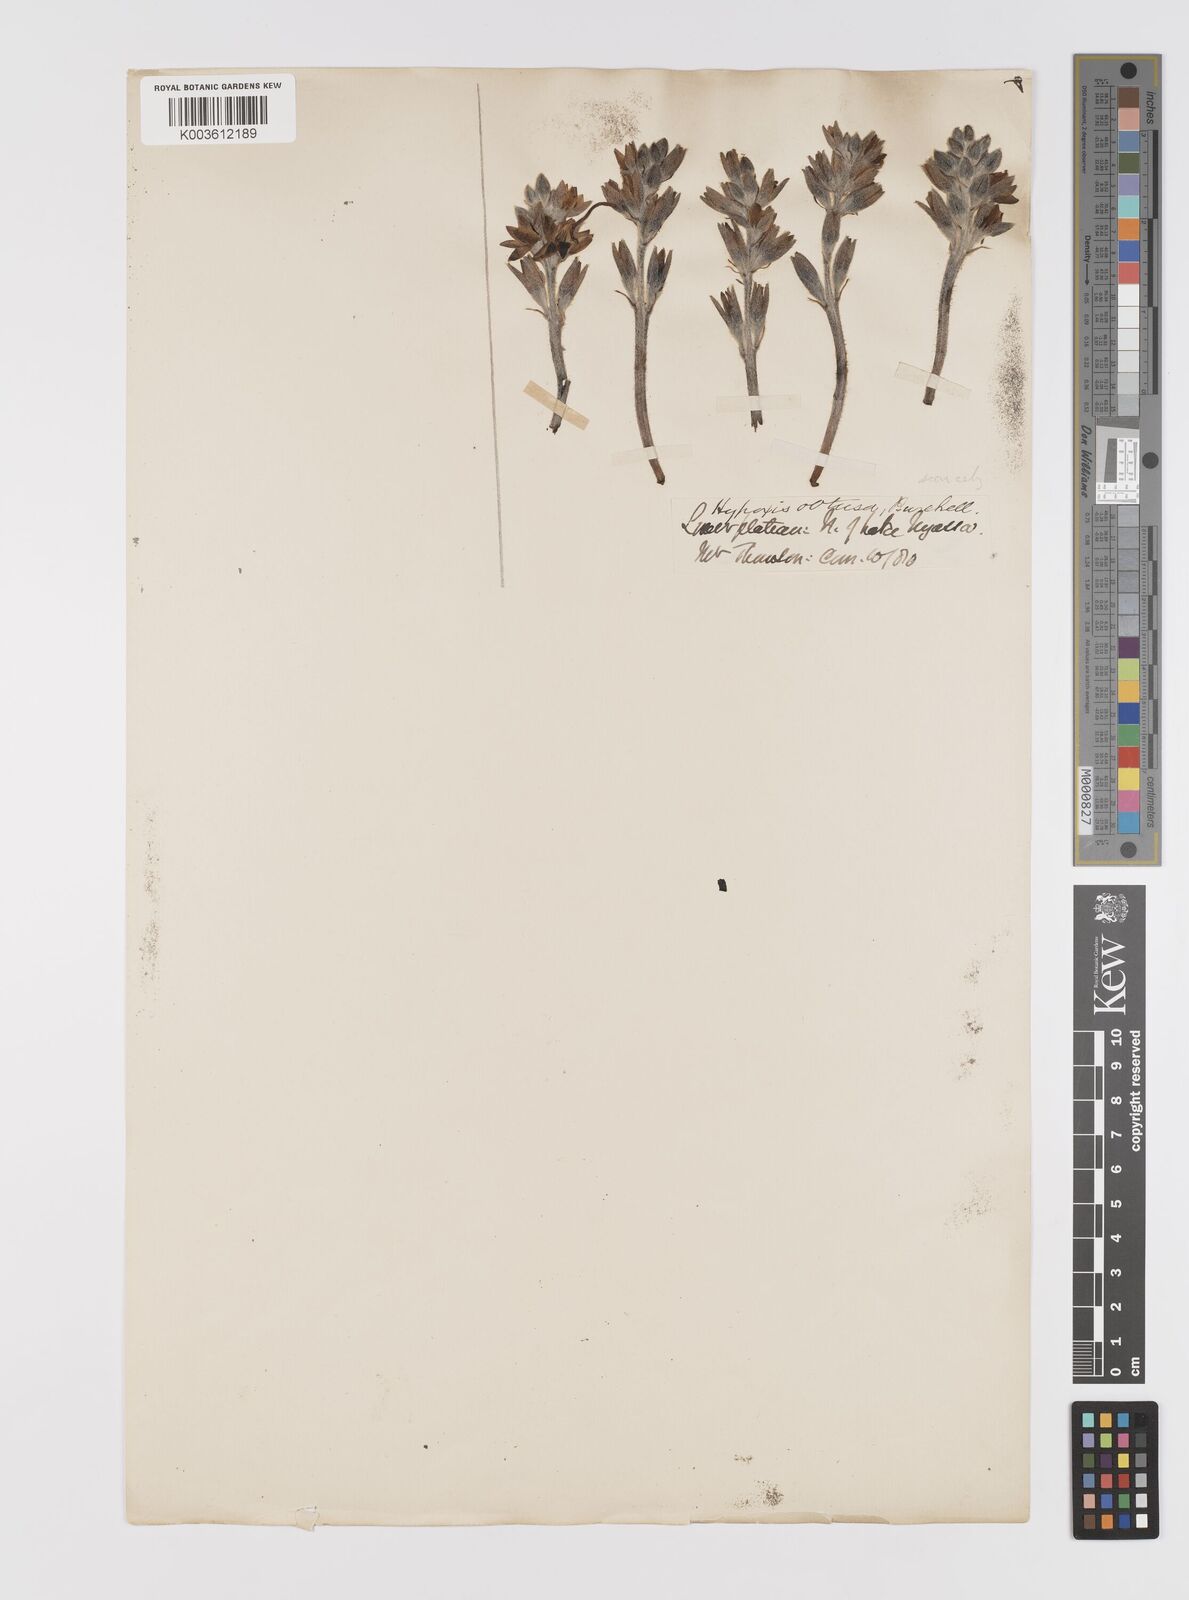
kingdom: Plantae
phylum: Tracheophyta
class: Liliopsida
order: Asparagales
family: Hypoxidaceae
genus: Hypoxis
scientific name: Hypoxis
